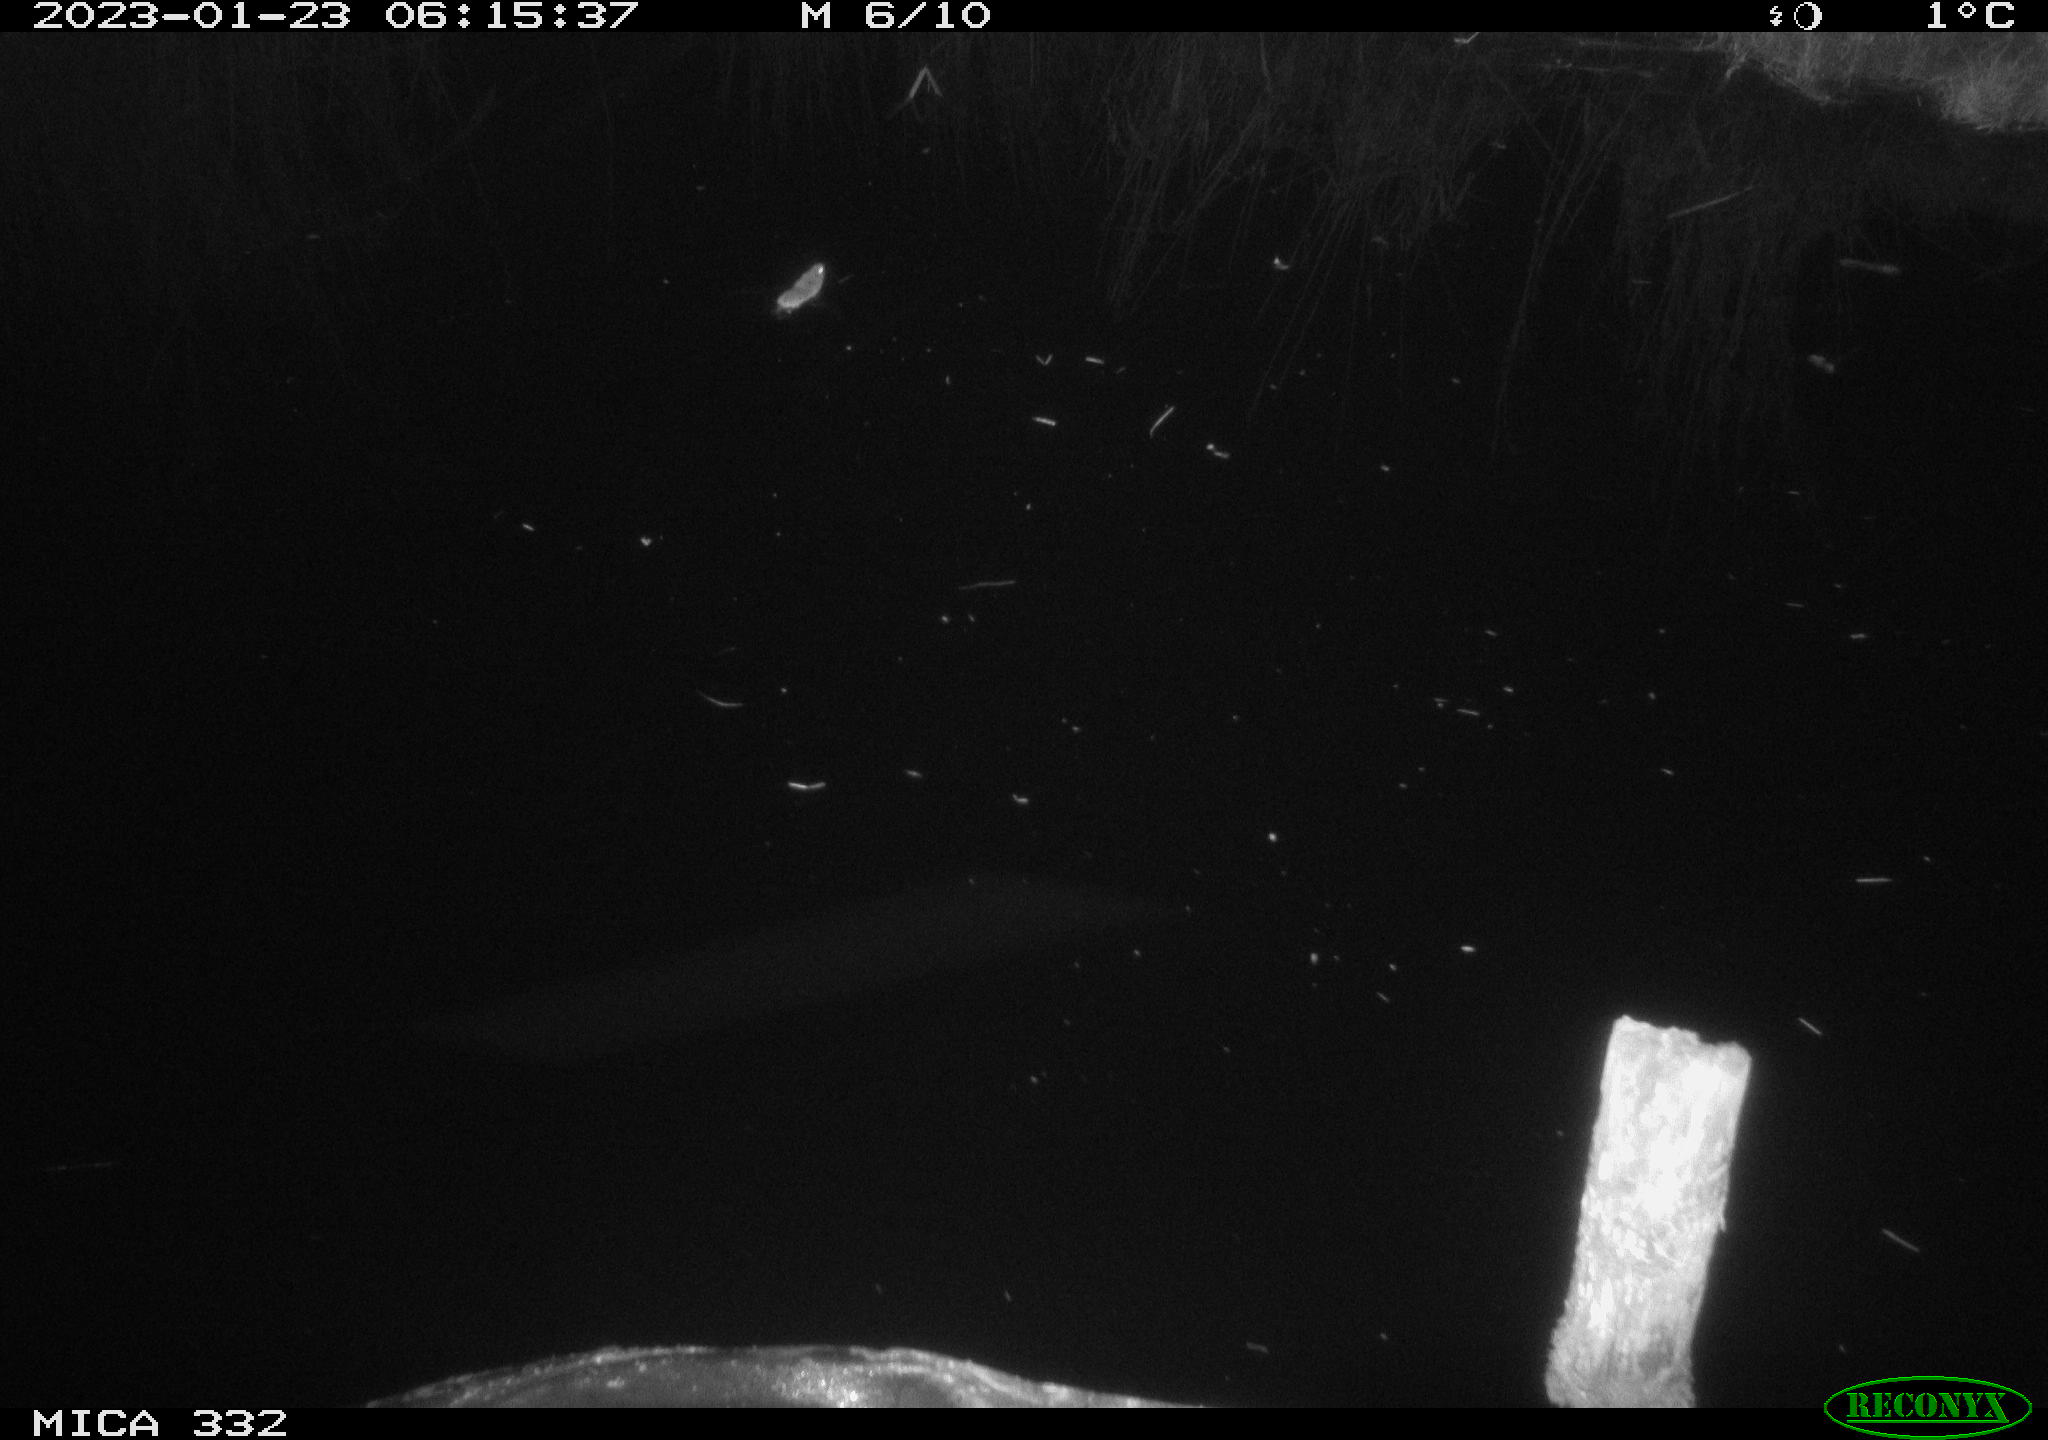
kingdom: Animalia
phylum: Chordata
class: Mammalia
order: Rodentia
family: Cricetidae
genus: Arvicola
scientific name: Arvicola amphibius
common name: European water vole
